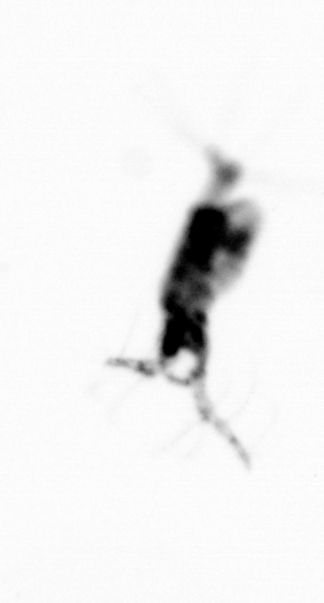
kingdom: Animalia
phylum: Arthropoda
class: Copepoda
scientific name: Copepoda
